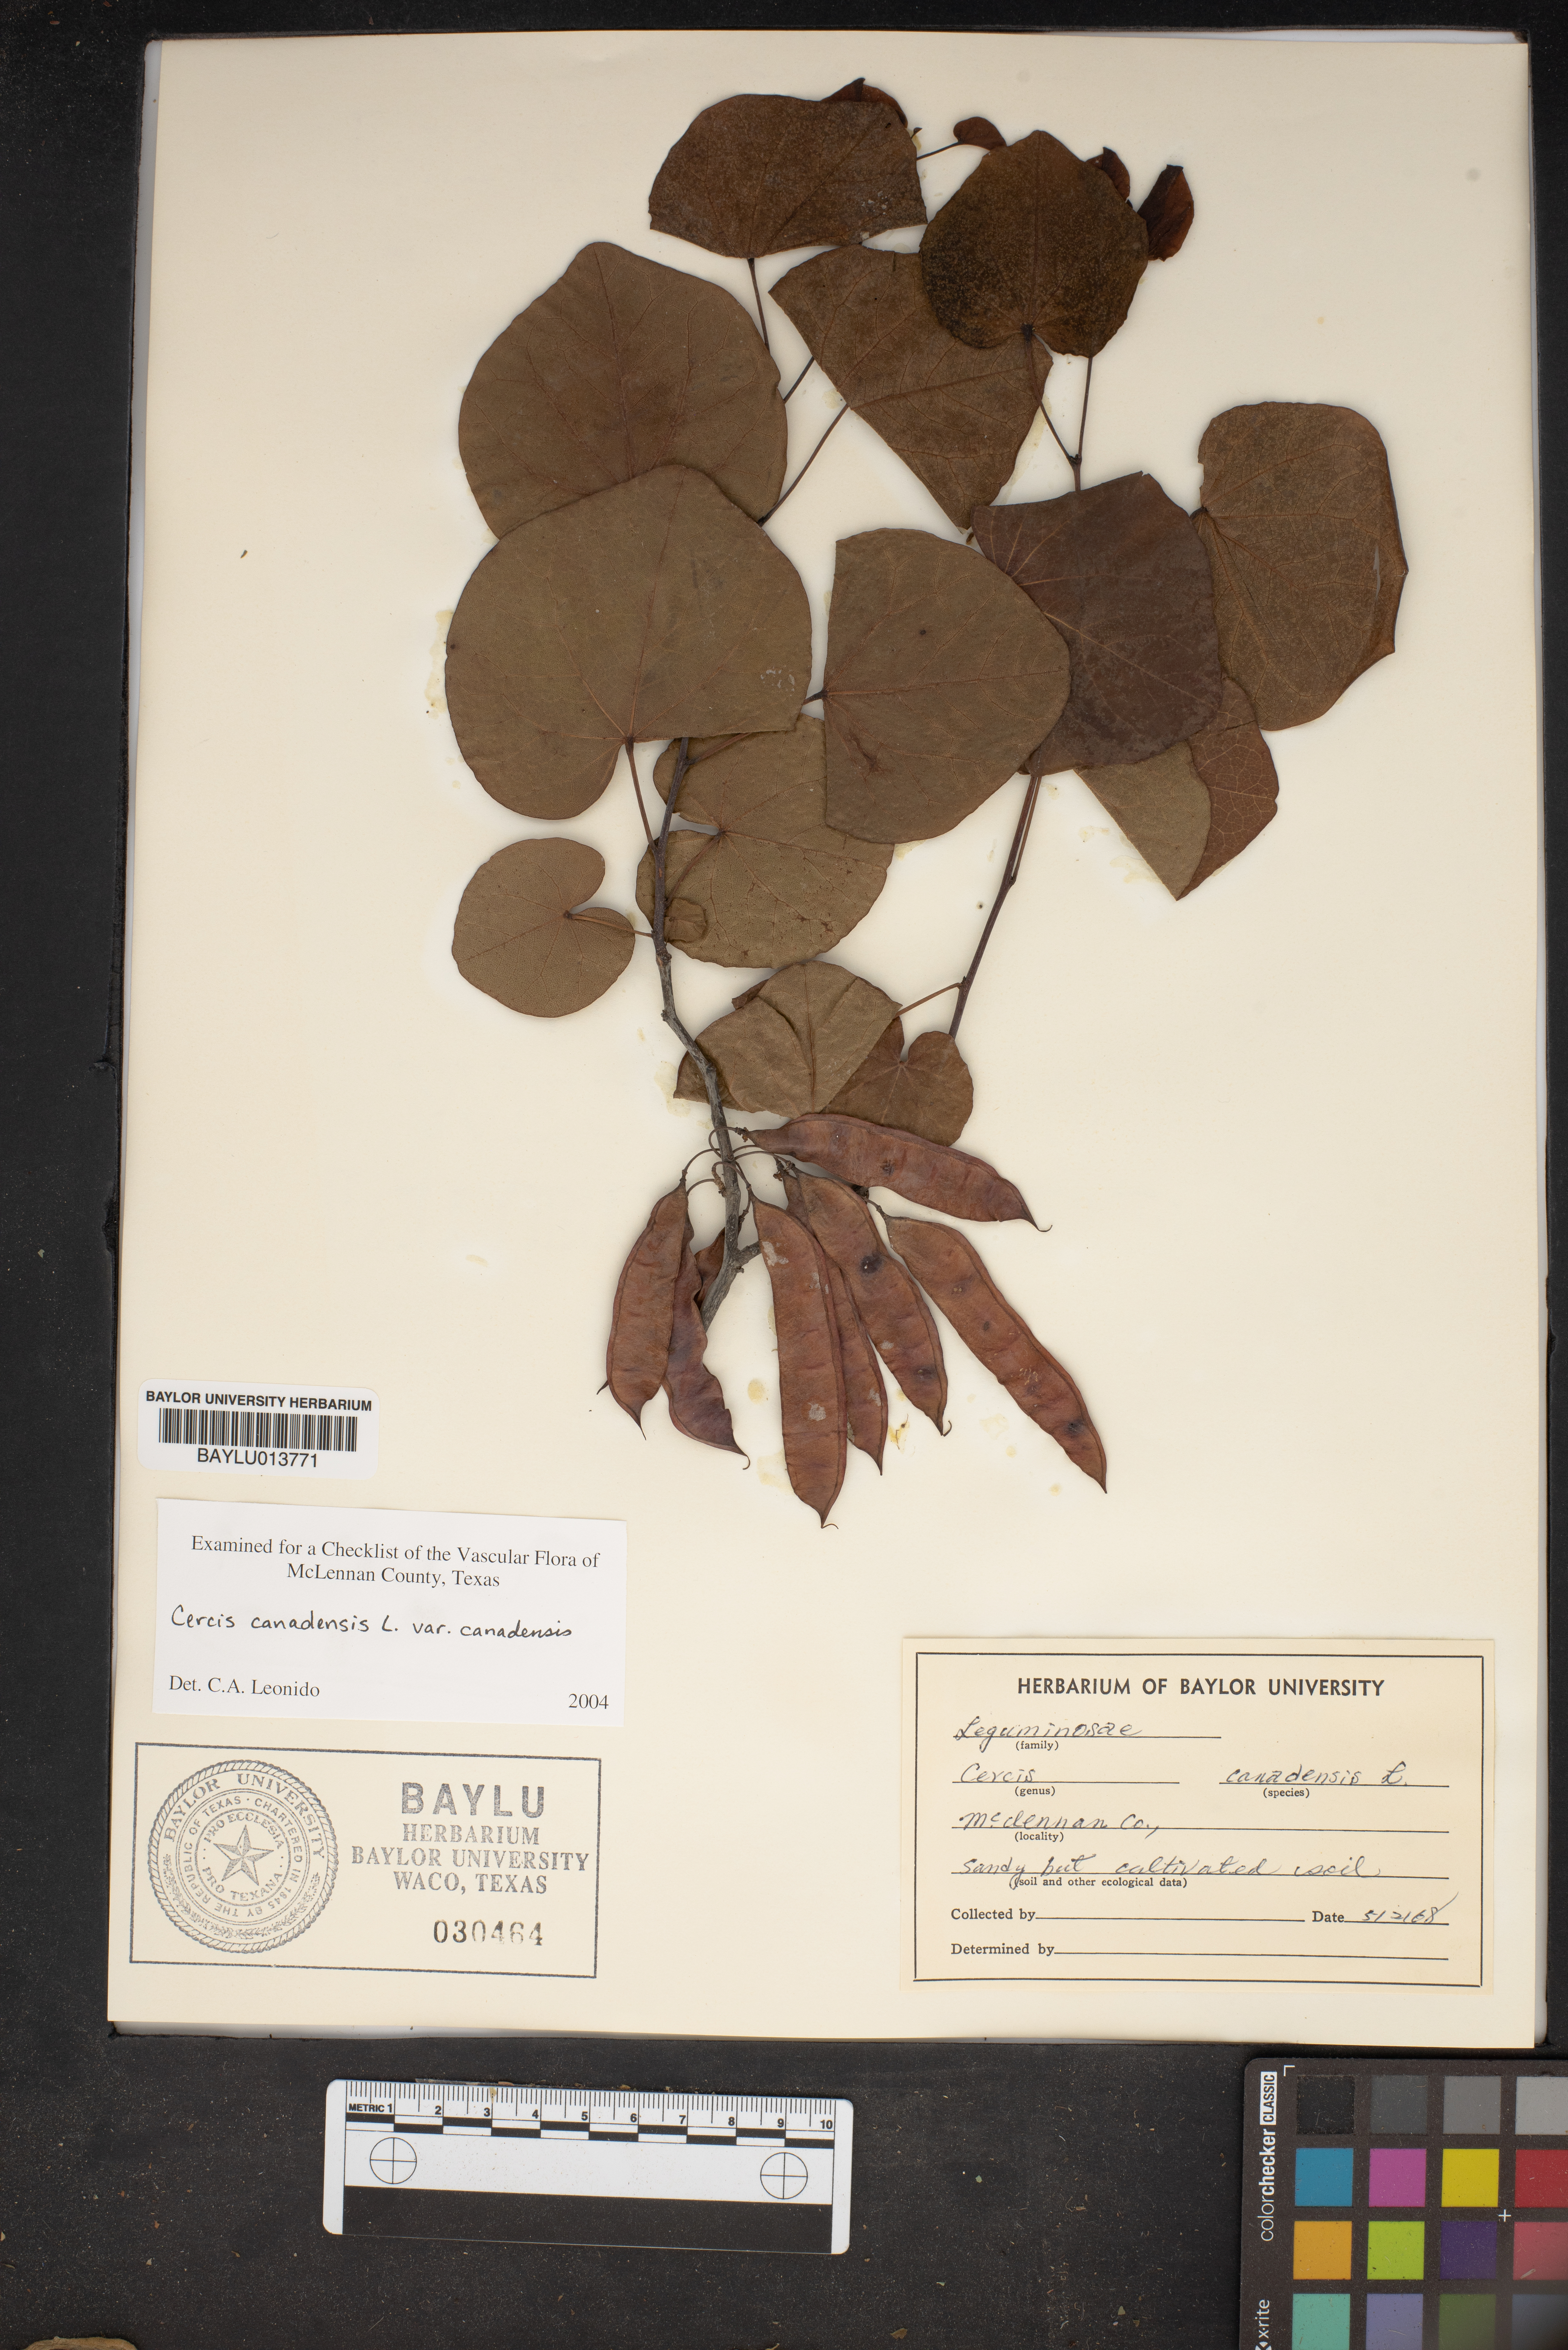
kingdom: Plantae
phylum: Tracheophyta
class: Magnoliopsida
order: Fabales
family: Fabaceae
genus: Cercis
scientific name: Cercis canadensis
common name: Eastern redbud
